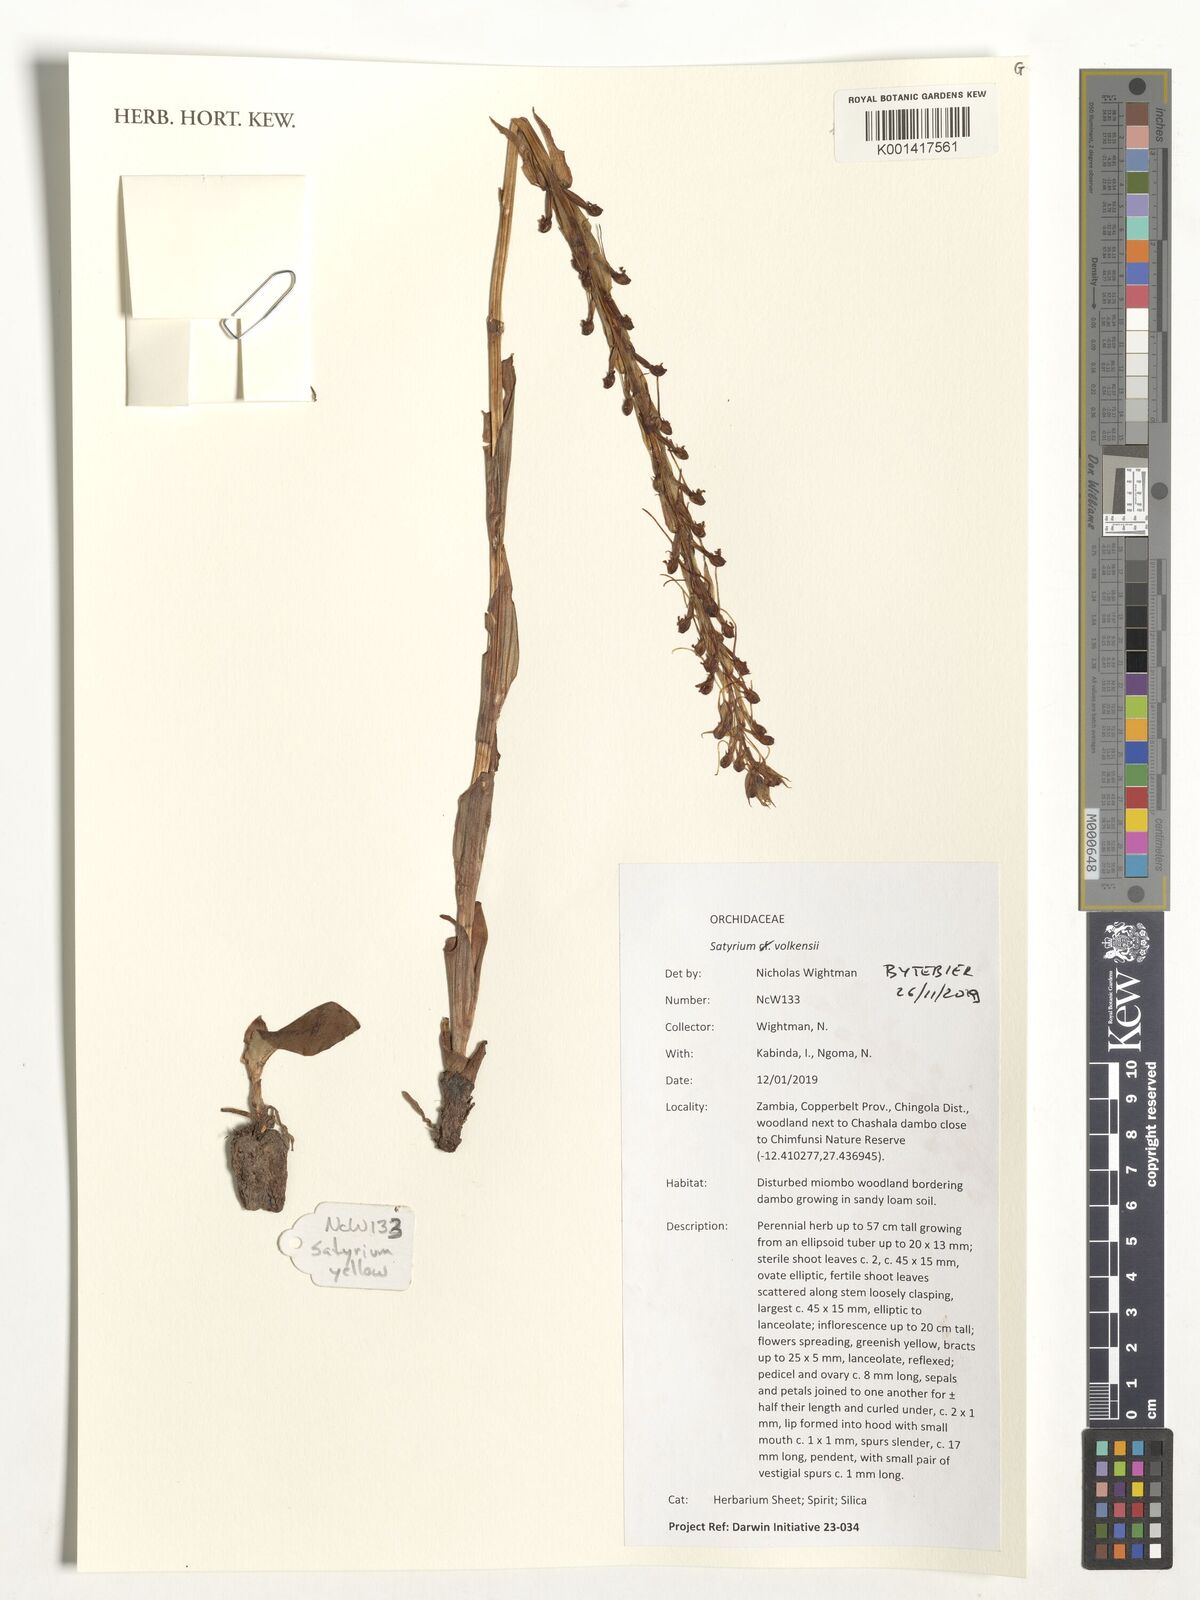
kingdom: Plantae
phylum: Tracheophyta
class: Liliopsida
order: Asparagales
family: Orchidaceae
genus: Satyrium
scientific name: Satyrium volkensii
